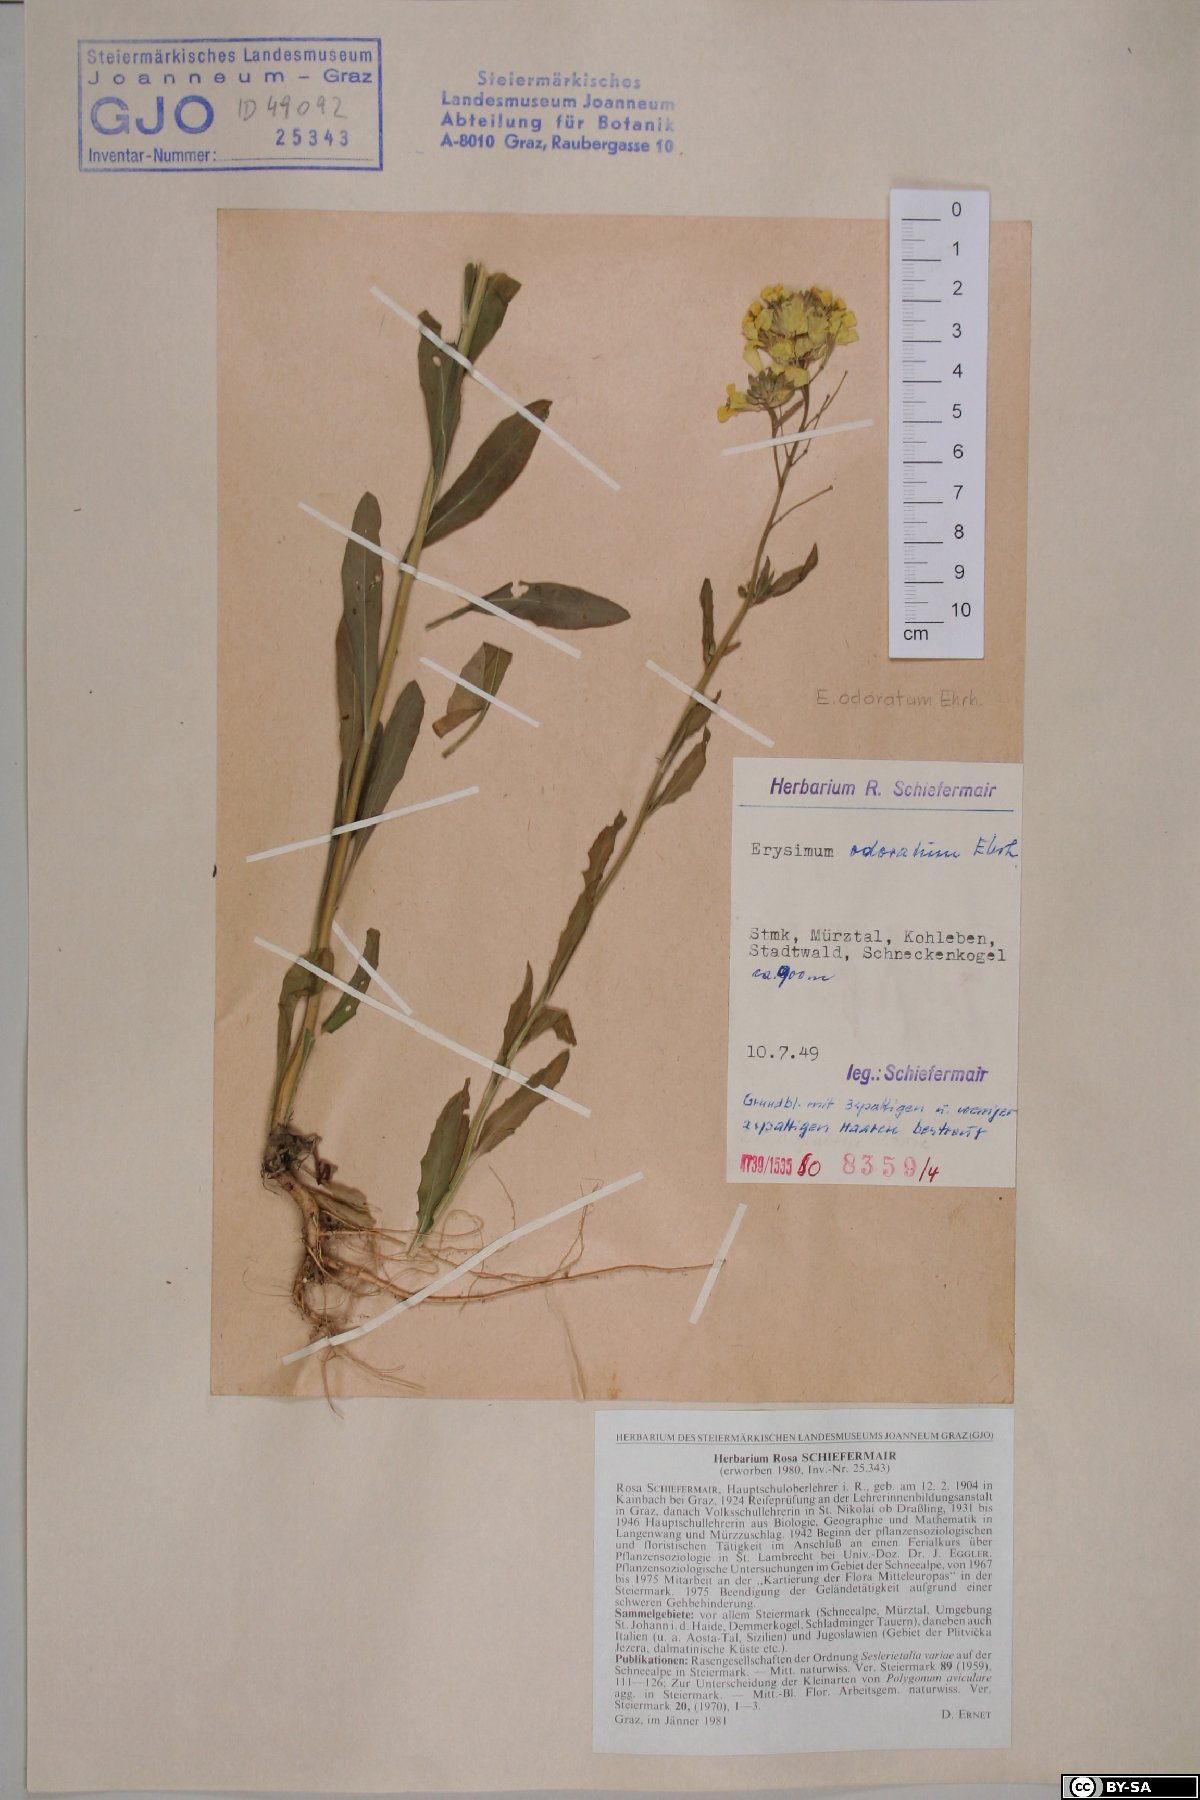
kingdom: Plantae
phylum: Tracheophyta
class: Magnoliopsida
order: Brassicales
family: Brassicaceae
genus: Erysimum
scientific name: Erysimum odoratum
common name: Smelly wallflower
